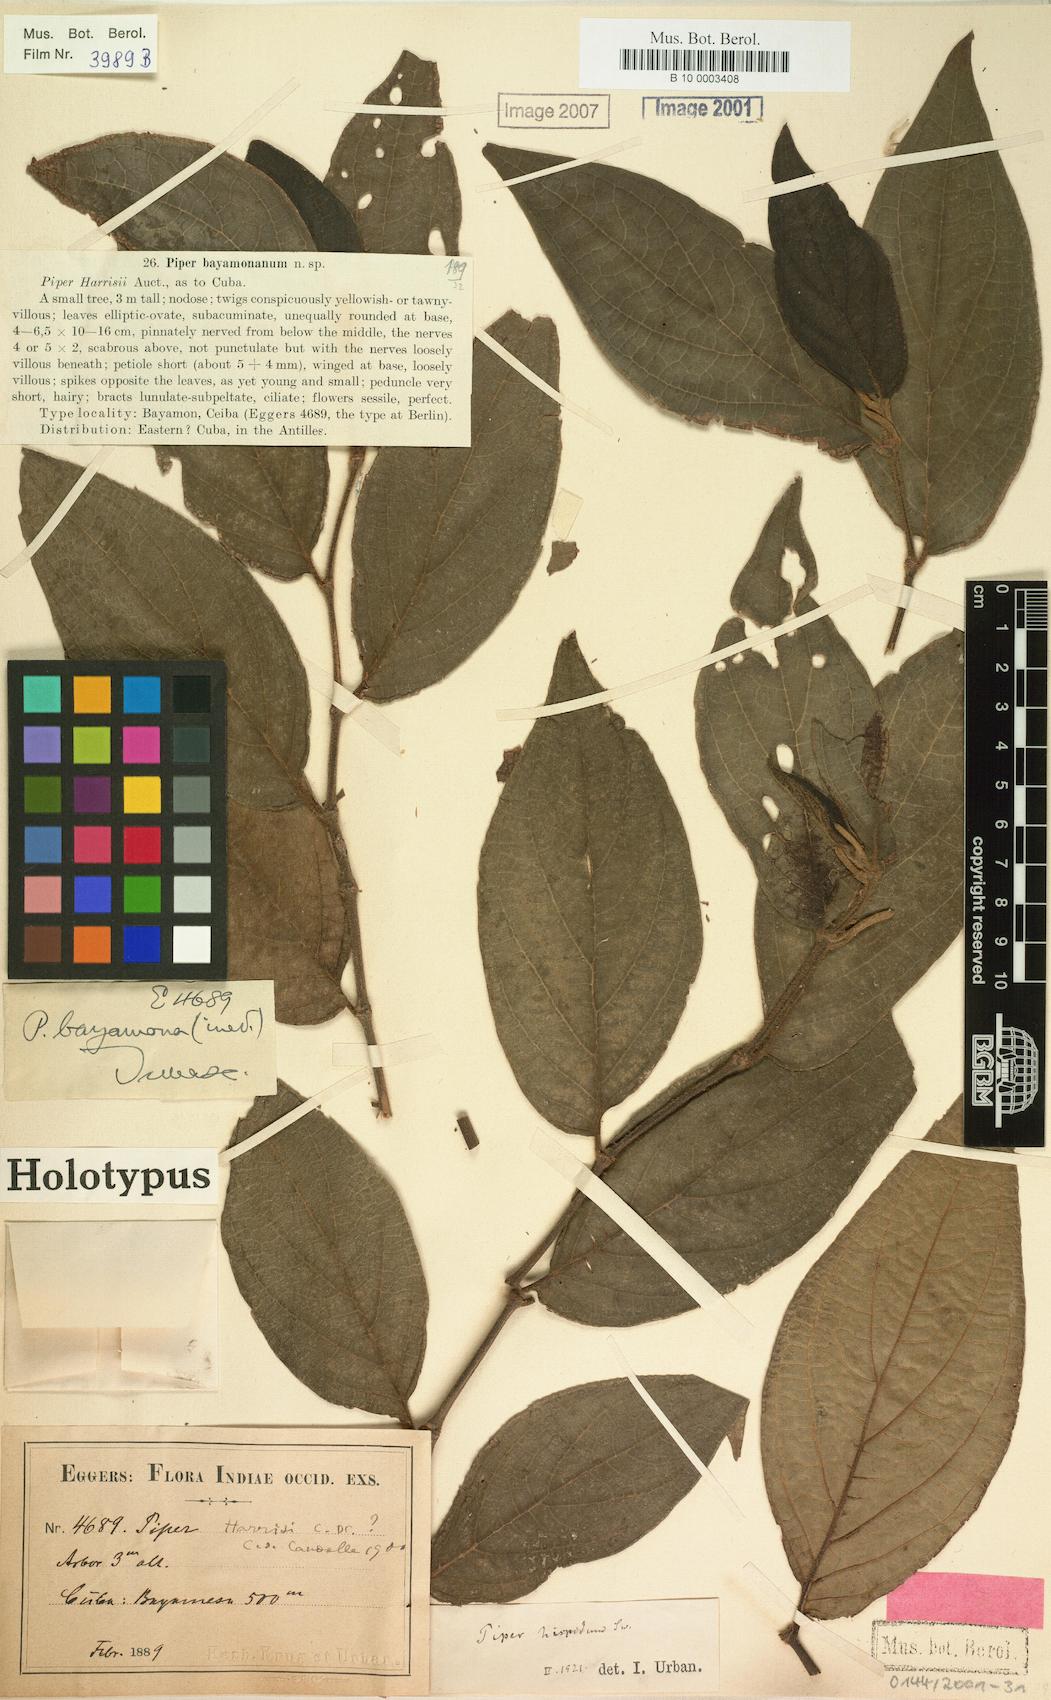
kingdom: Plantae
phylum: Tracheophyta
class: Magnoliopsida
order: Piperales
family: Piperaceae
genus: Piper
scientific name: Piper hispidum
